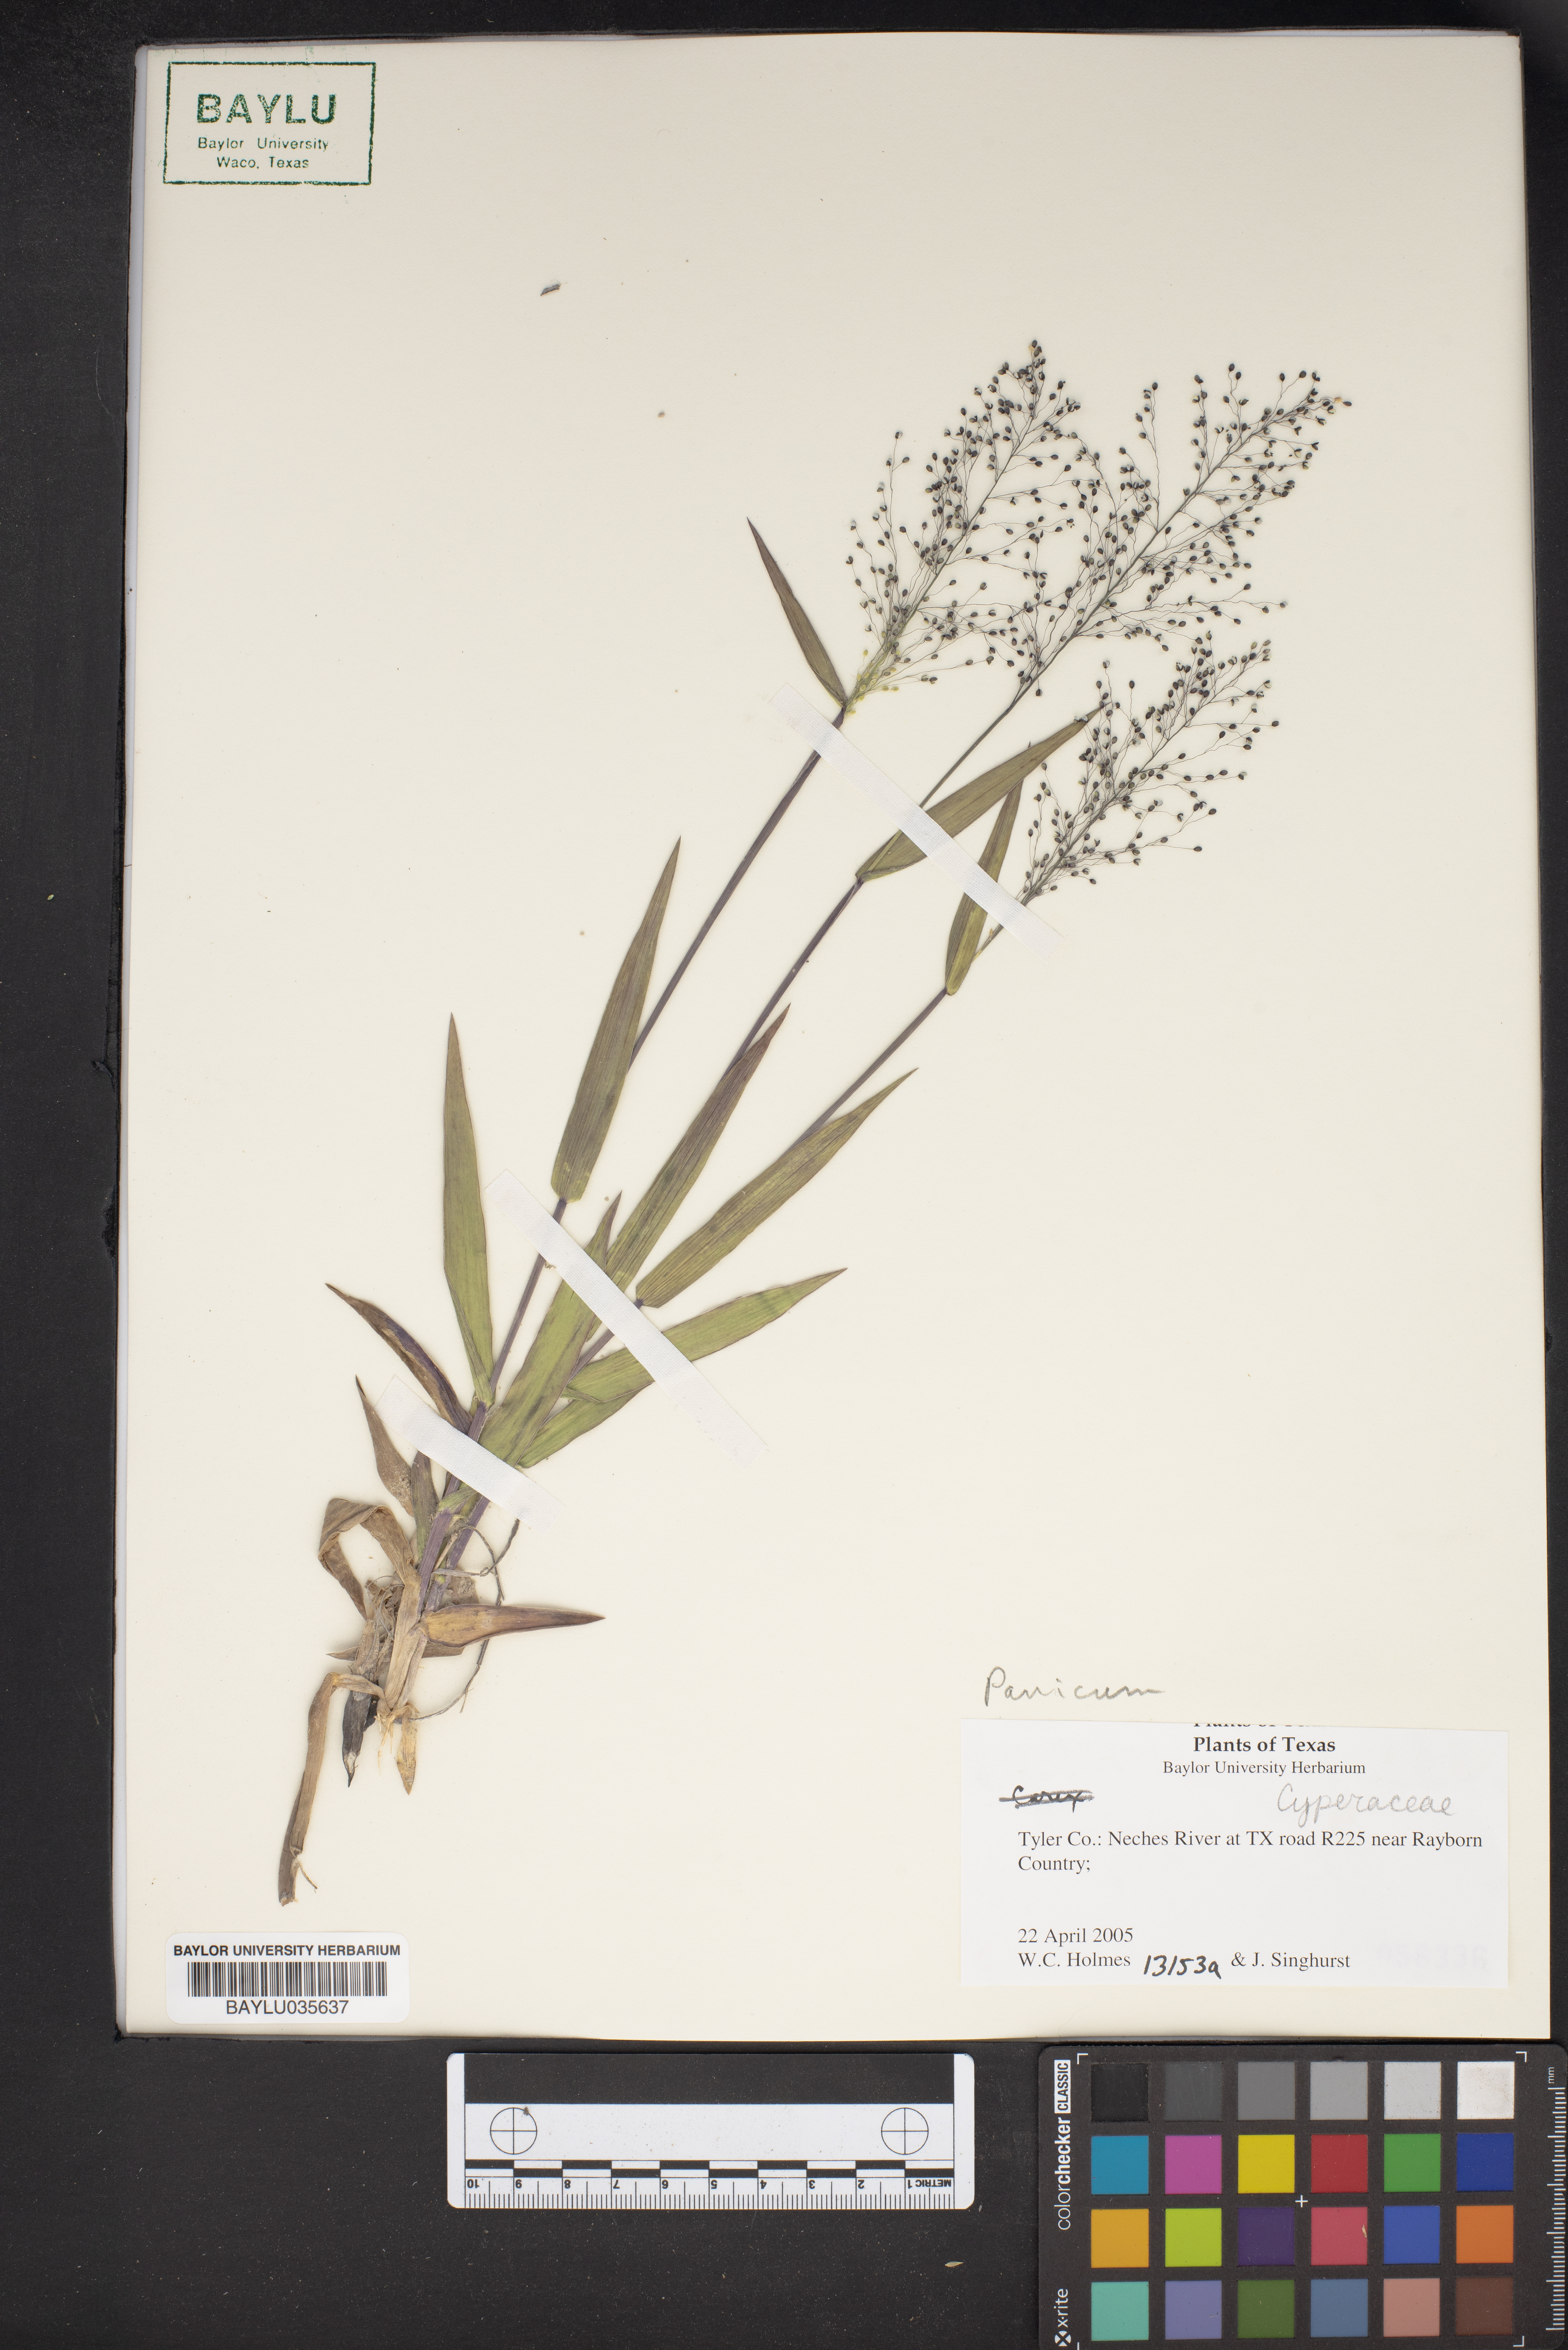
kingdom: Plantae
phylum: Tracheophyta
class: Liliopsida
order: Poales
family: Cyperaceae
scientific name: Cyperaceae
